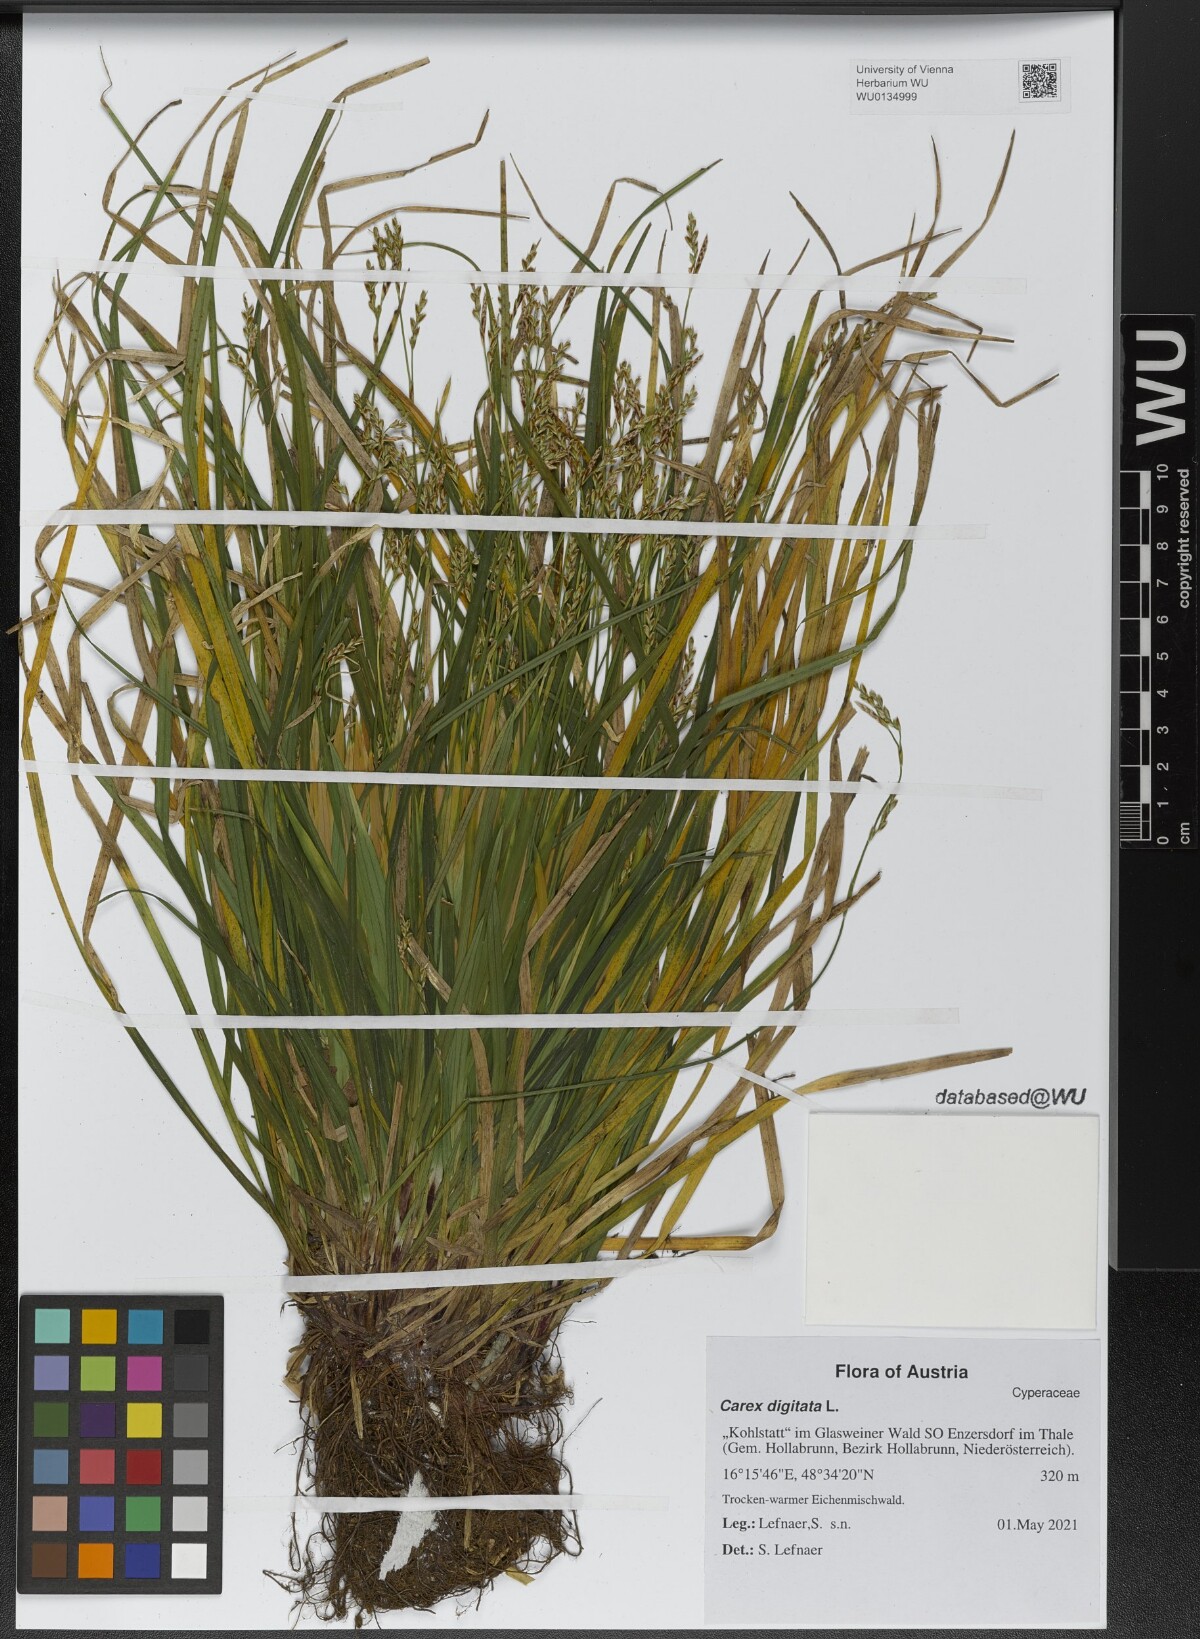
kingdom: Plantae
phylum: Tracheophyta
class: Liliopsida
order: Poales
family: Cyperaceae
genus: Carex
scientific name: Carex digitata
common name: Fingered sedge
